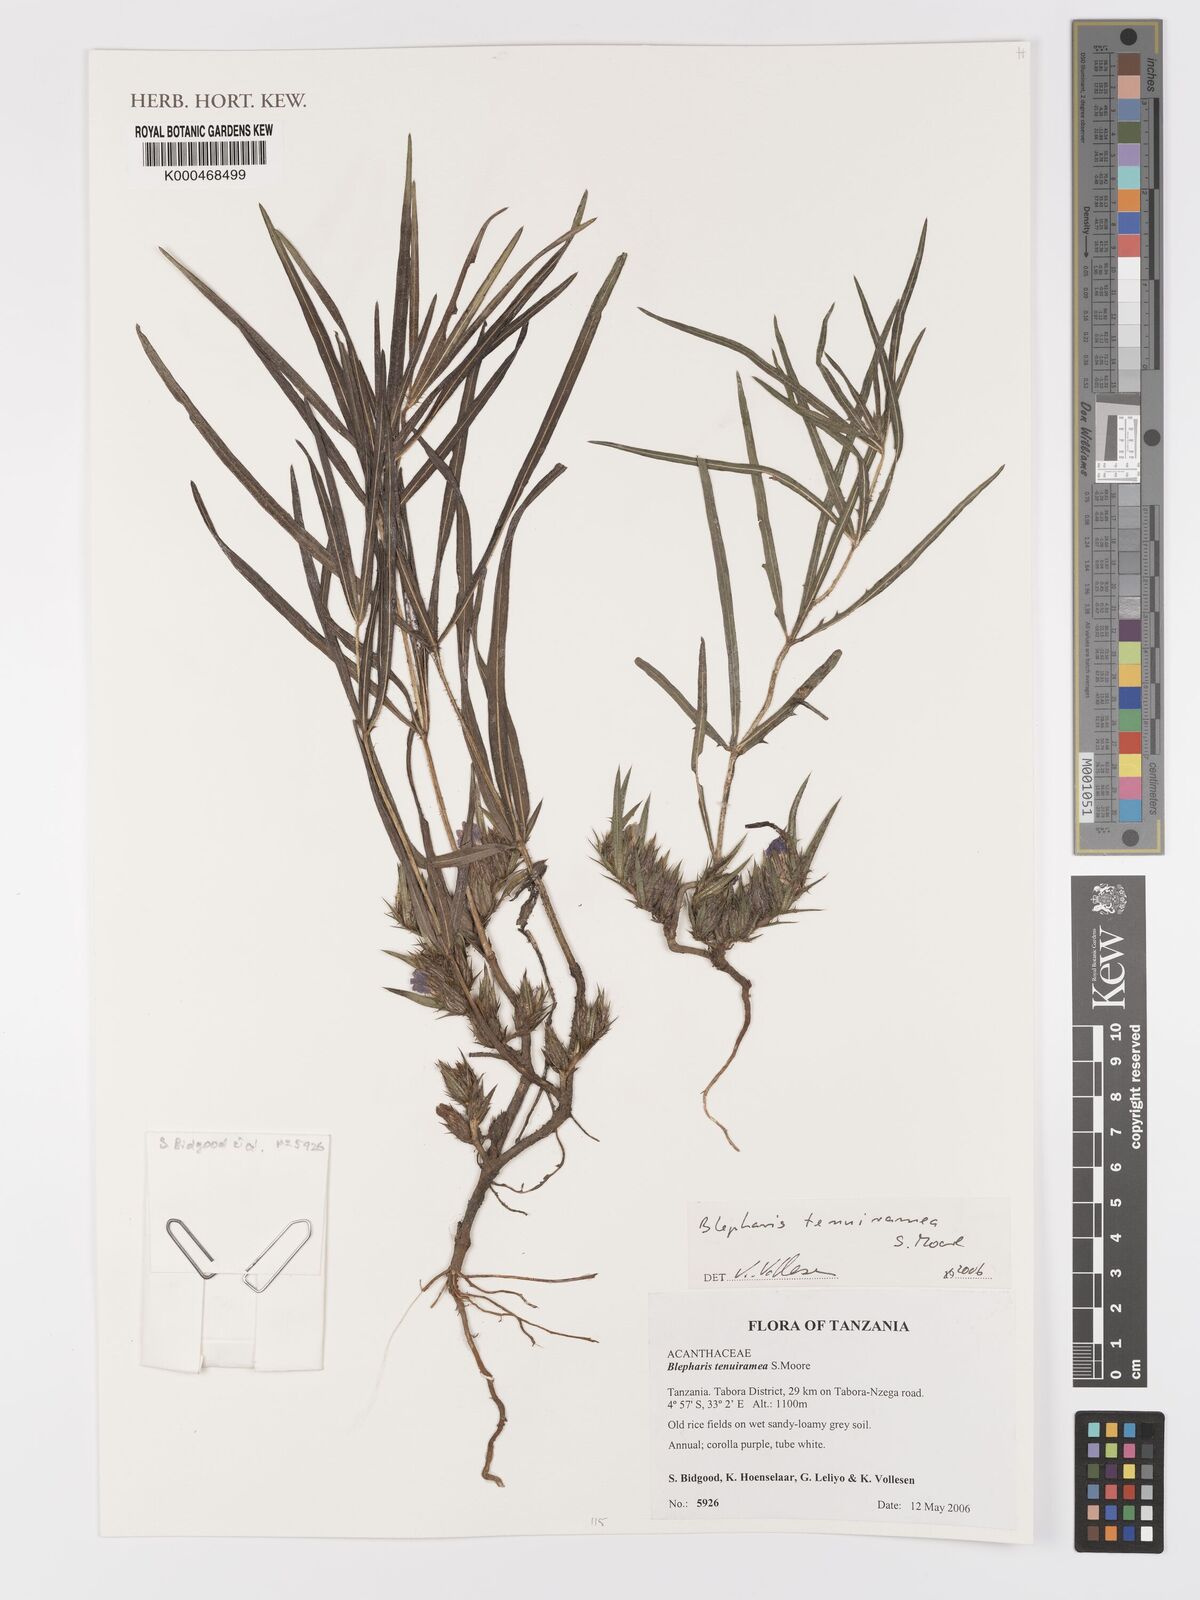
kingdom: Plantae
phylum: Tracheophyta
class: Magnoliopsida
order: Lamiales
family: Acanthaceae
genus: Blepharis
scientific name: Blepharis tenuiramea
